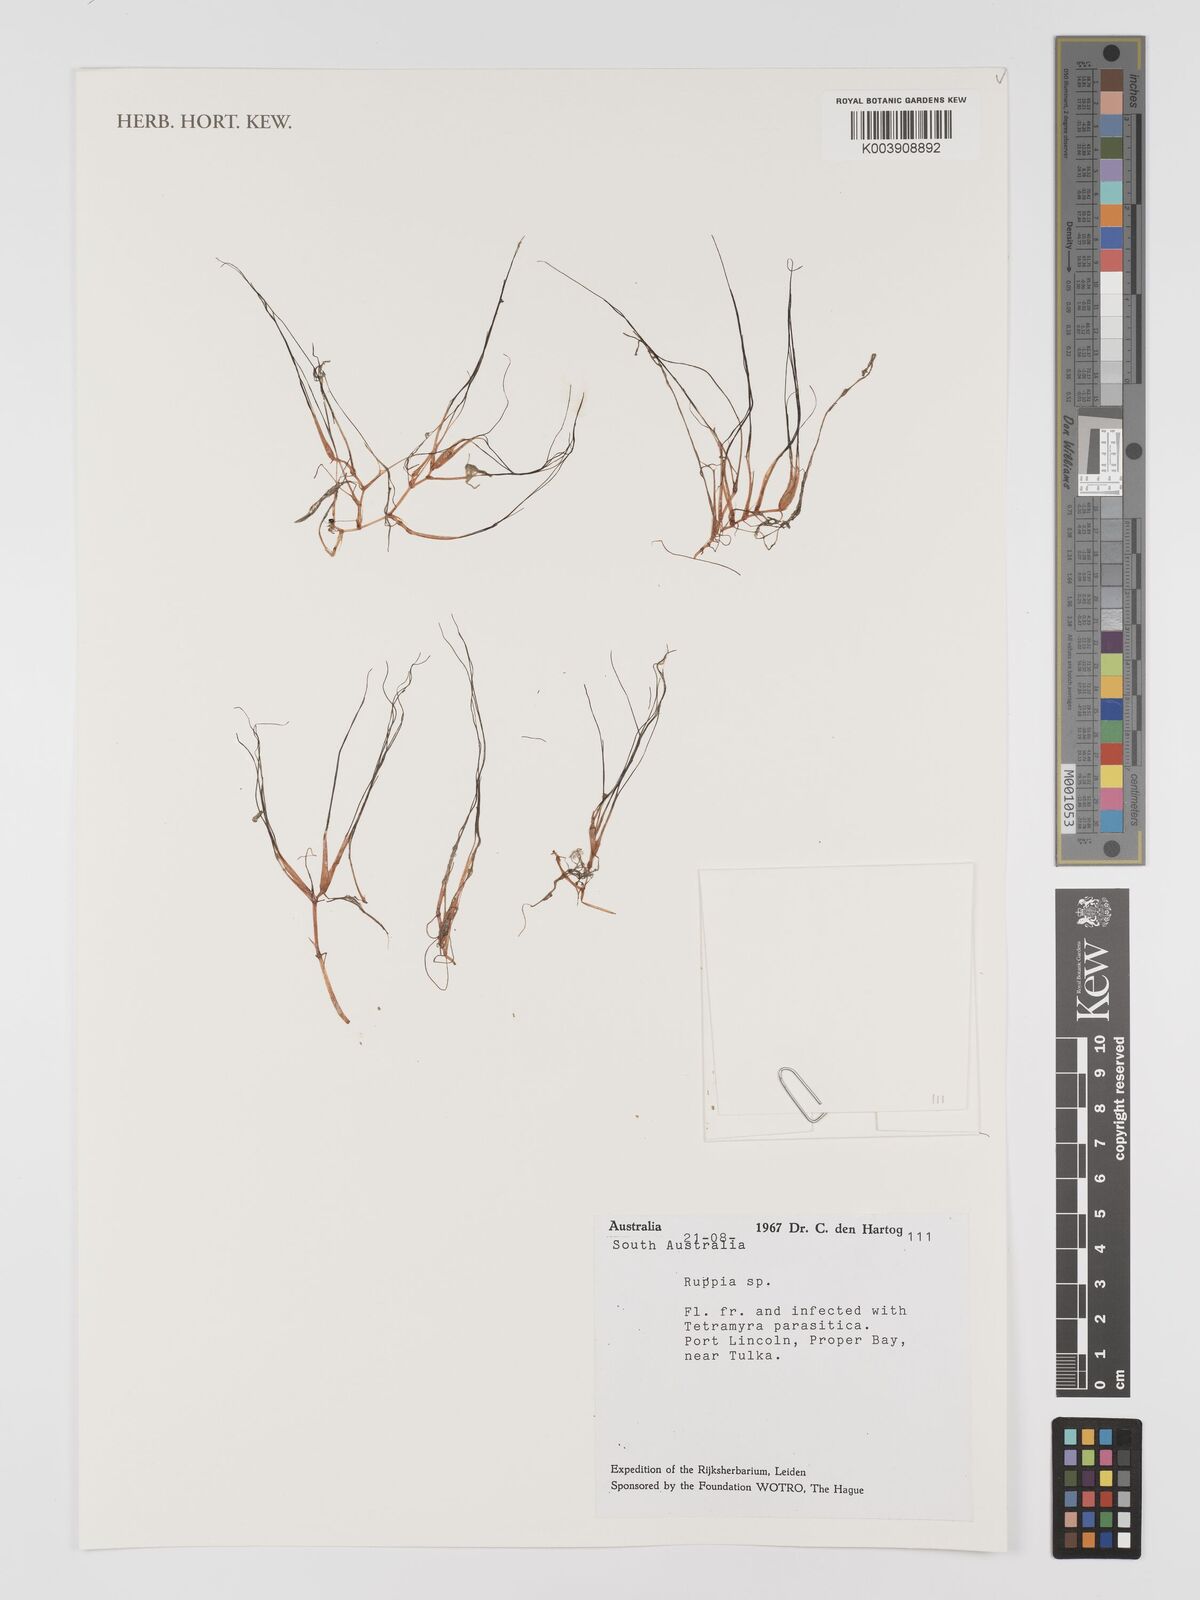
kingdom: Plantae
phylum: Tracheophyta
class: Liliopsida
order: Alismatales
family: Ruppiaceae
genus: Ruppia
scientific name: Ruppia
